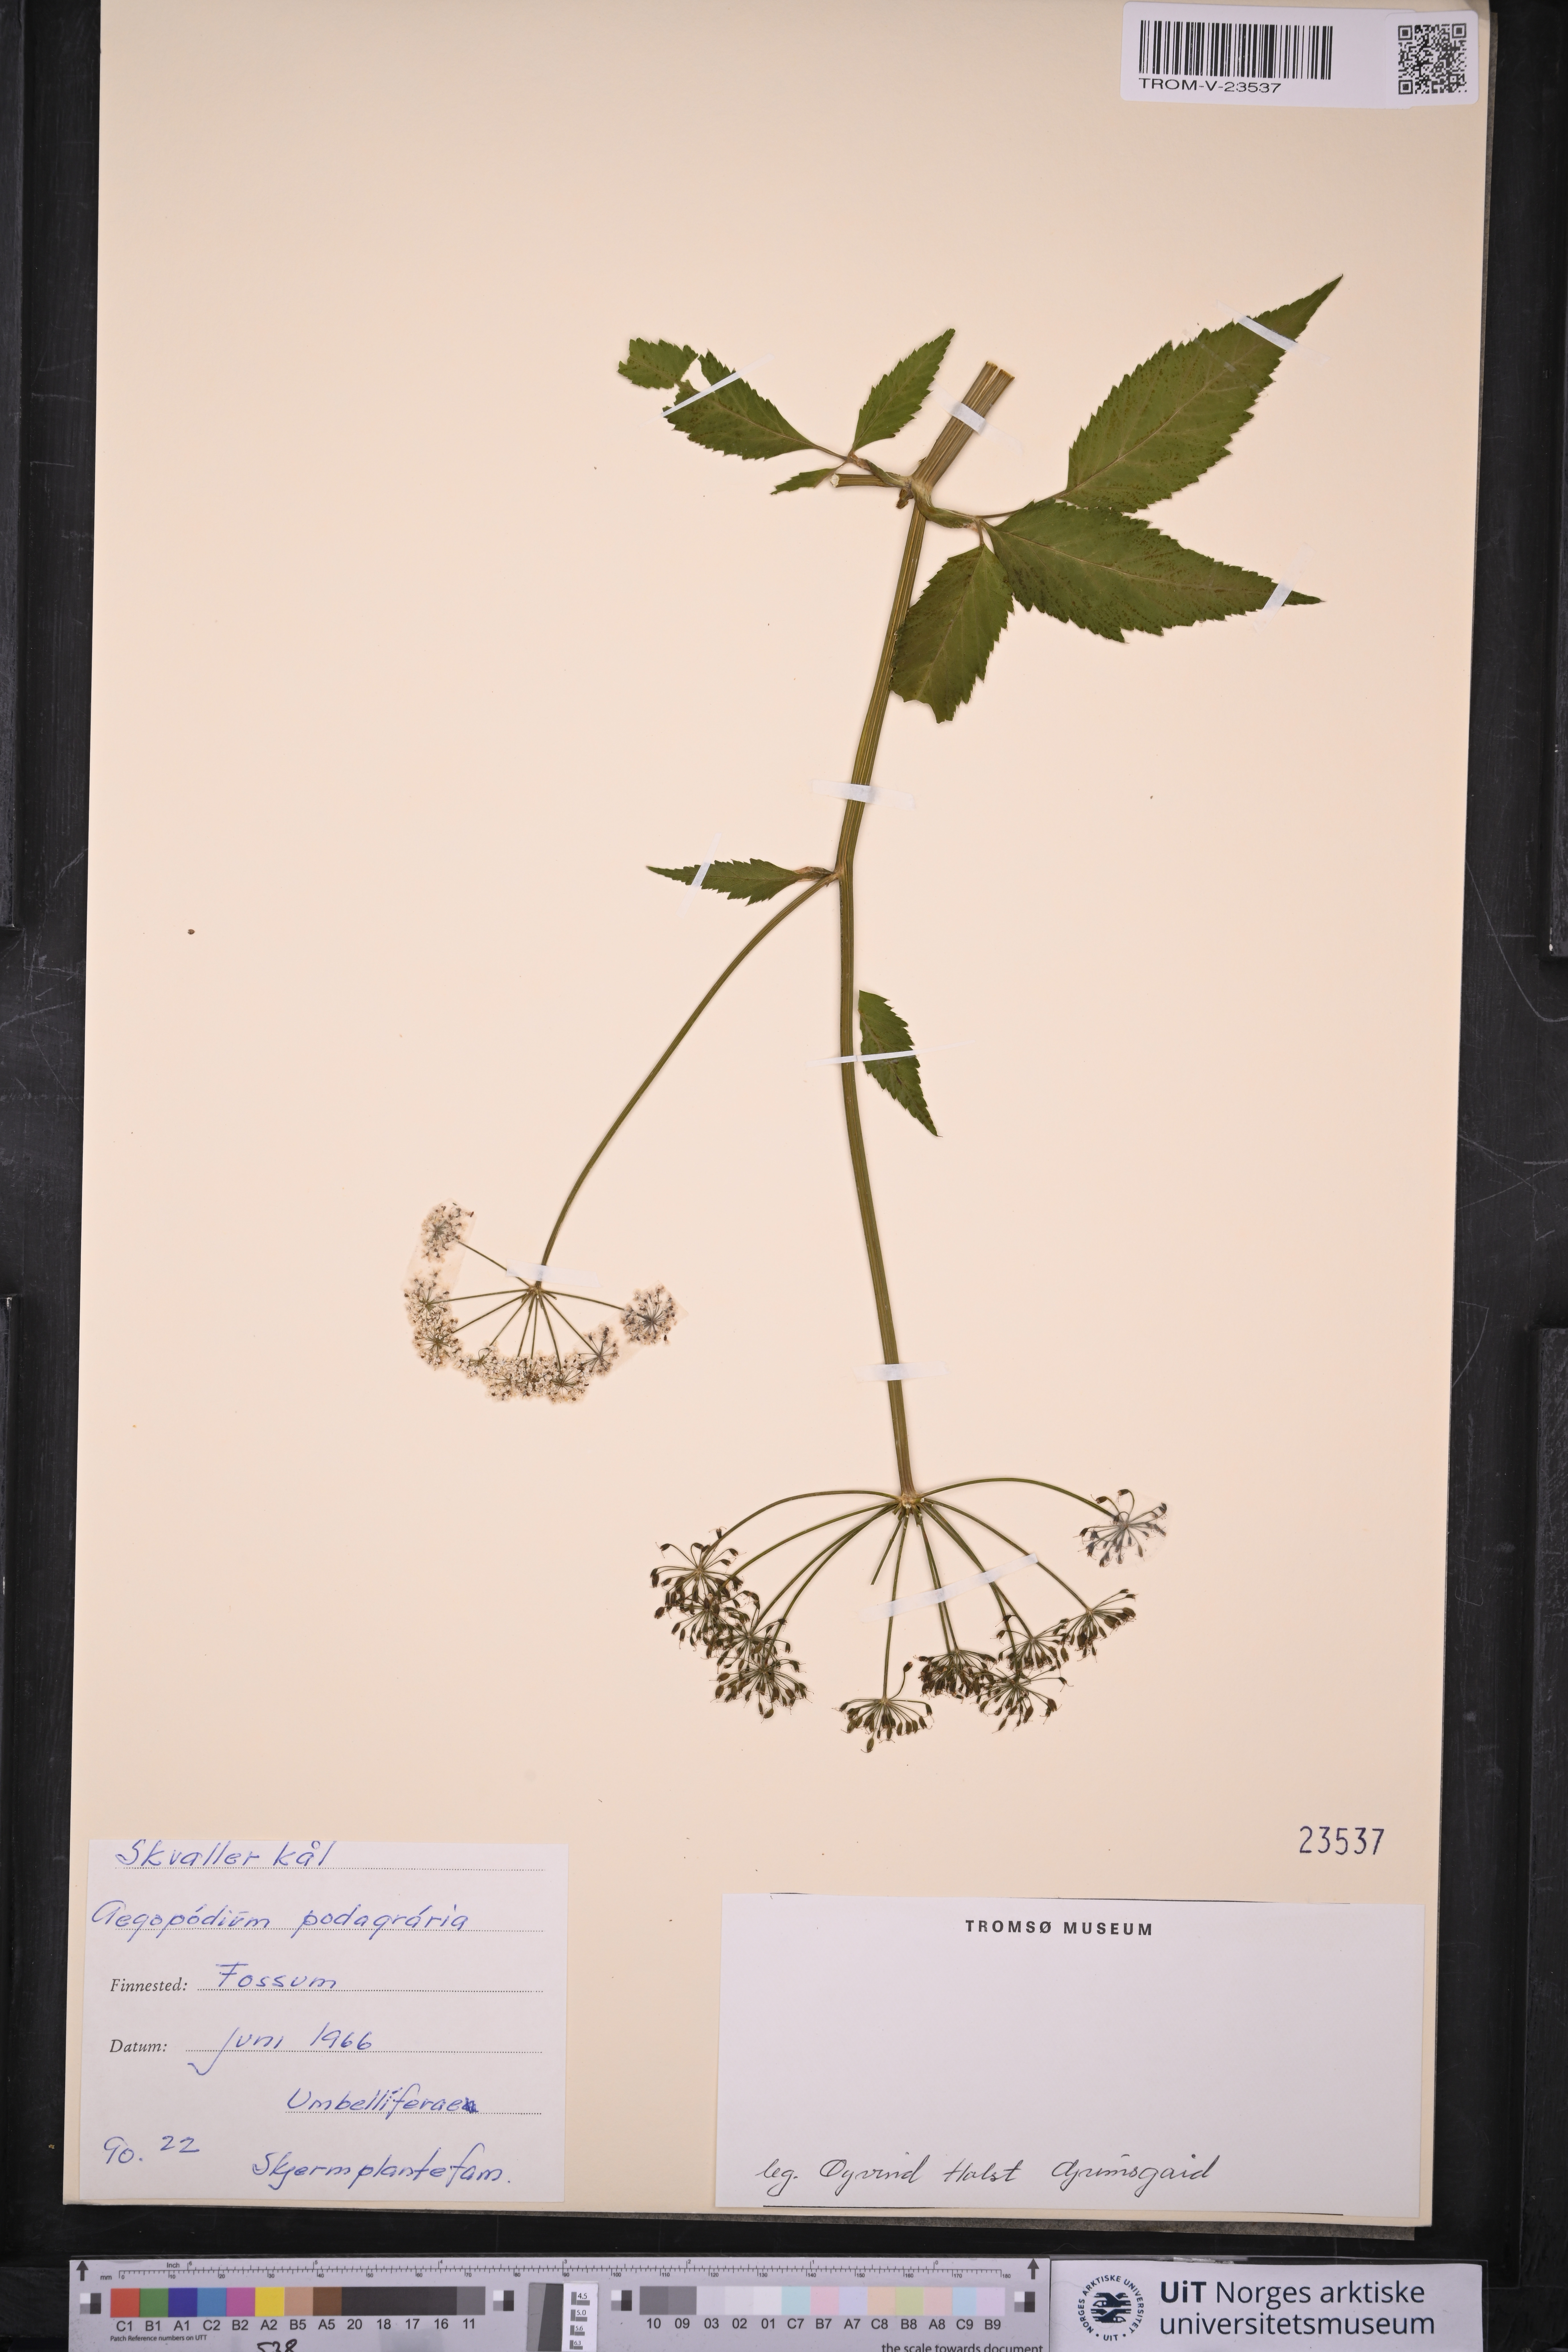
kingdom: Plantae
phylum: Tracheophyta
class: Magnoliopsida
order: Apiales
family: Apiaceae
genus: Aegopodium
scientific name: Aegopodium podagraria
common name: Ground-elder
